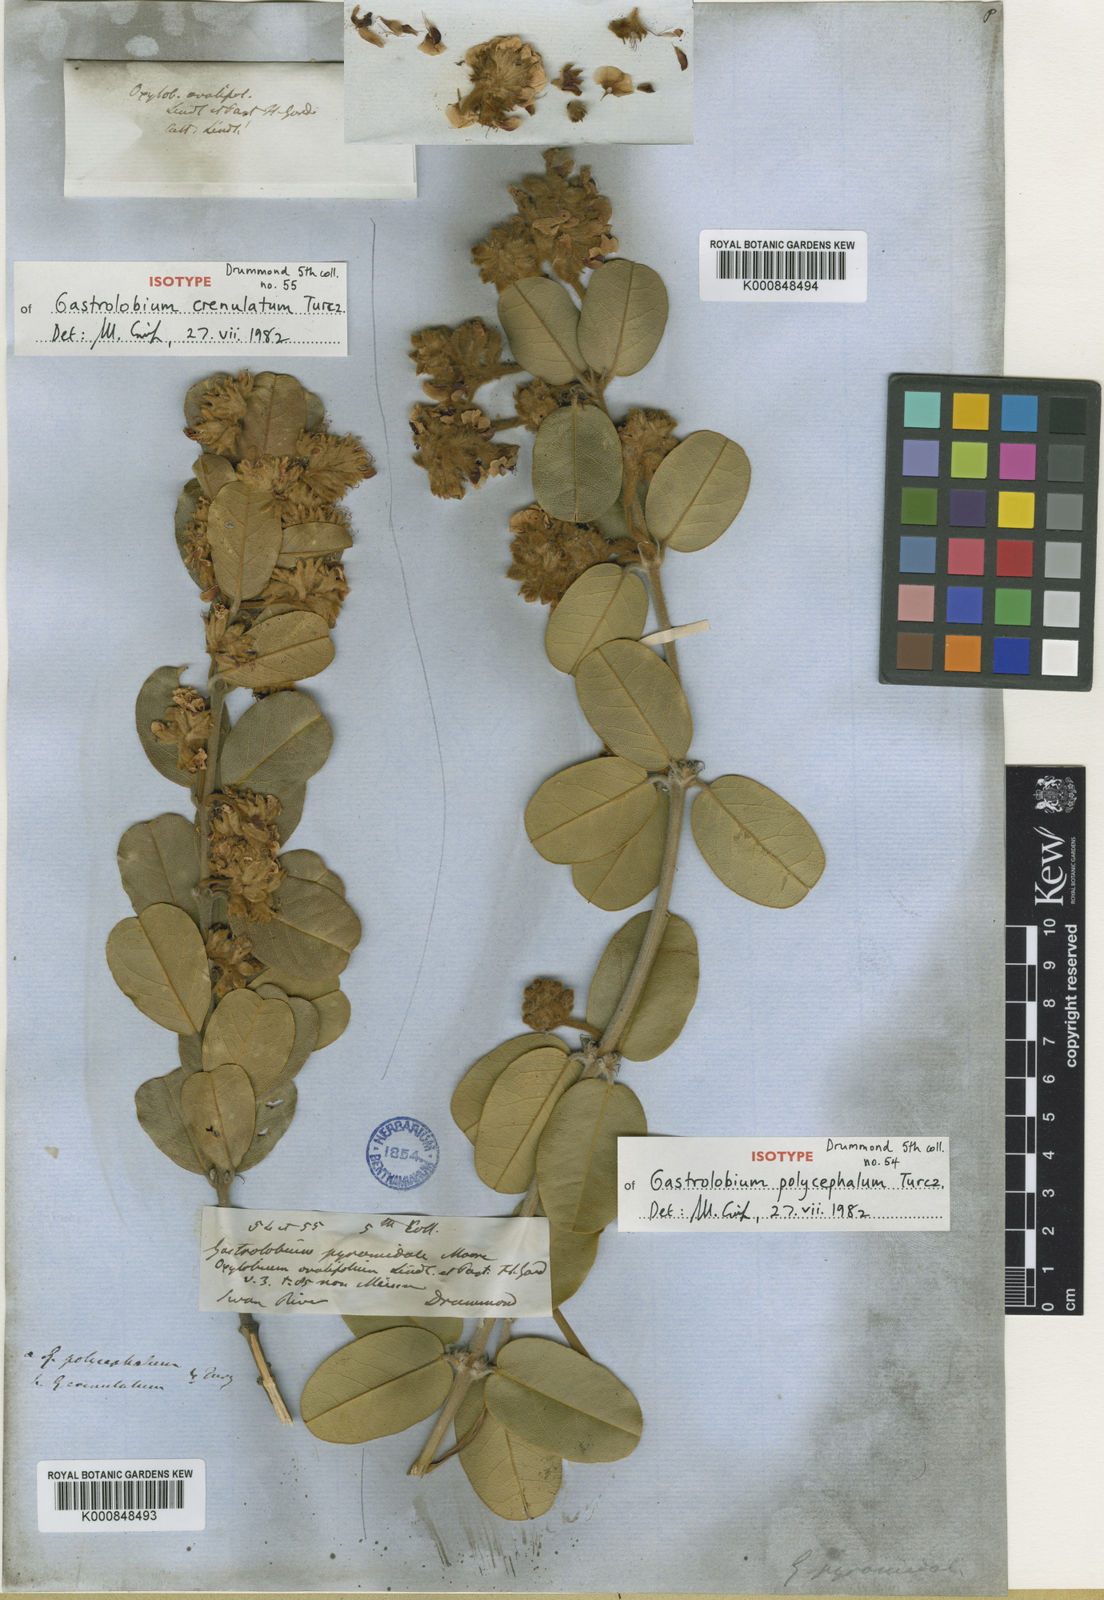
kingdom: Plantae
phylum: Tracheophyta
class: Magnoliopsida
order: Fabales
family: Fabaceae
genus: Gastrolobium
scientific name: Gastrolobium pyramidale
